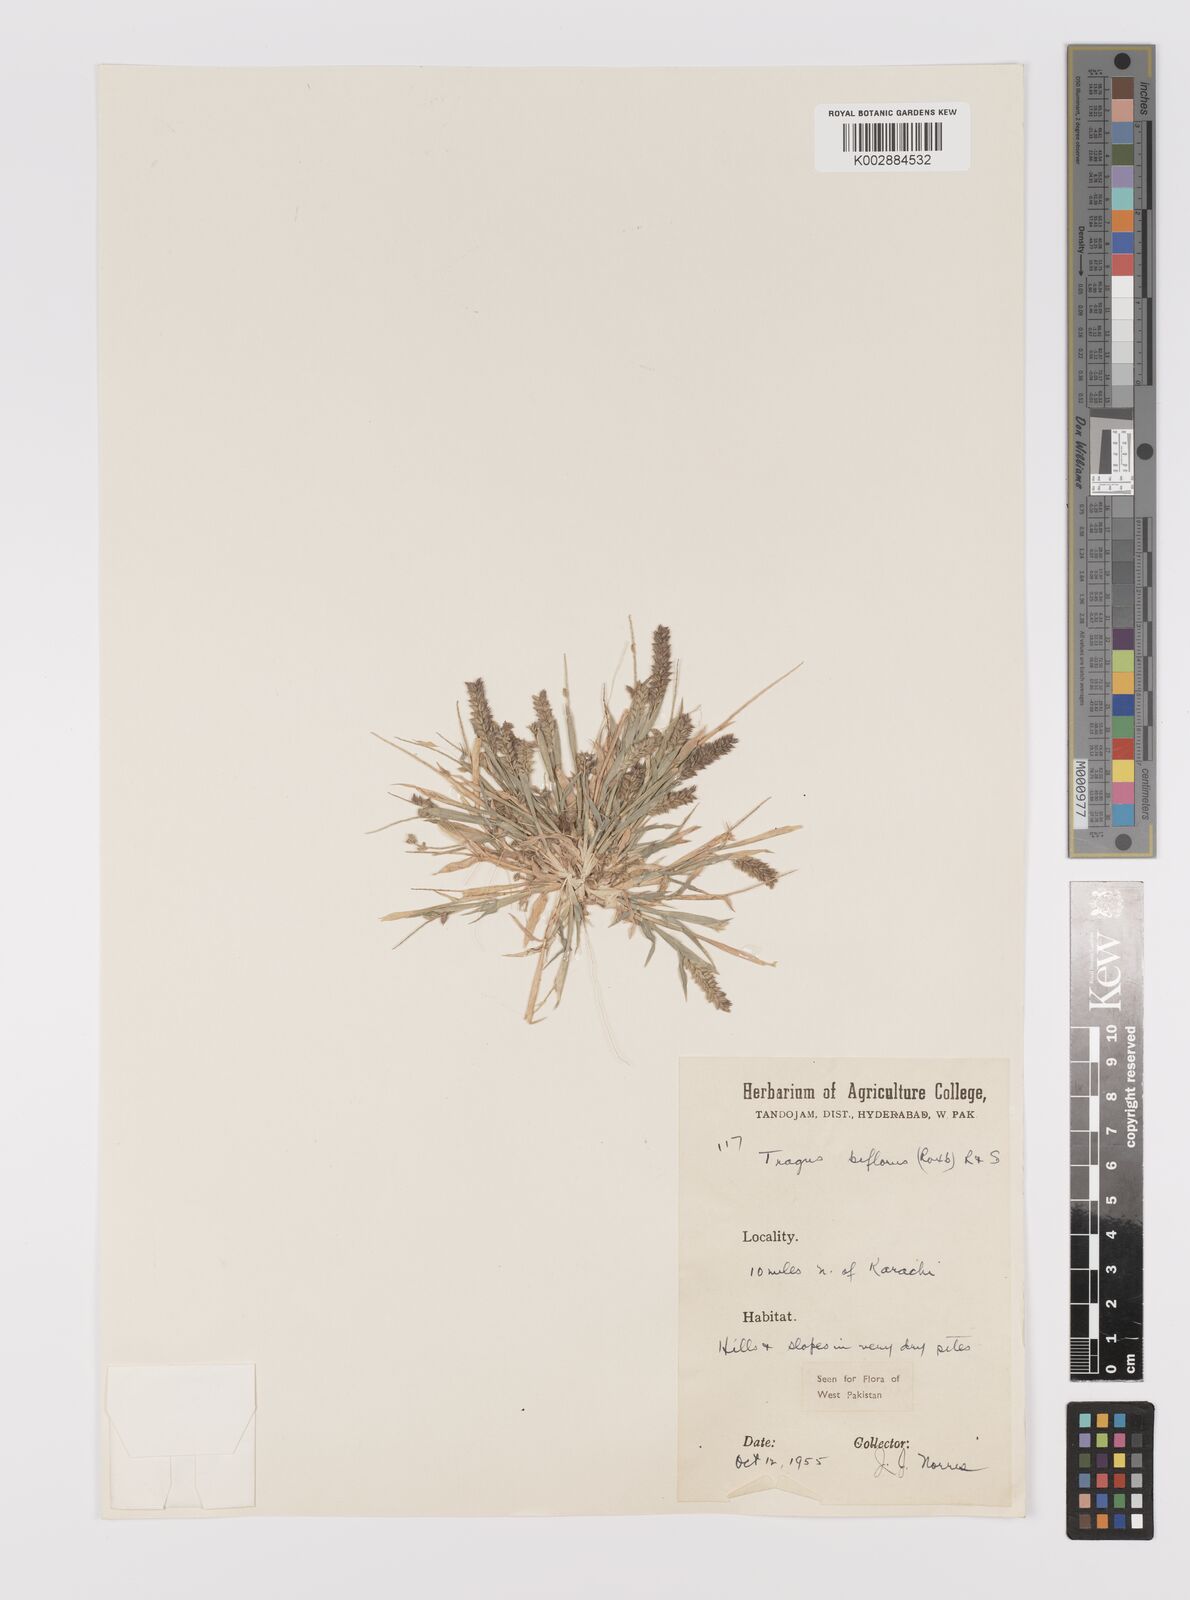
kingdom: Plantae
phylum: Tracheophyta
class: Liliopsida
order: Poales
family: Poaceae
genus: Tragus
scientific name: Tragus mongolorum
